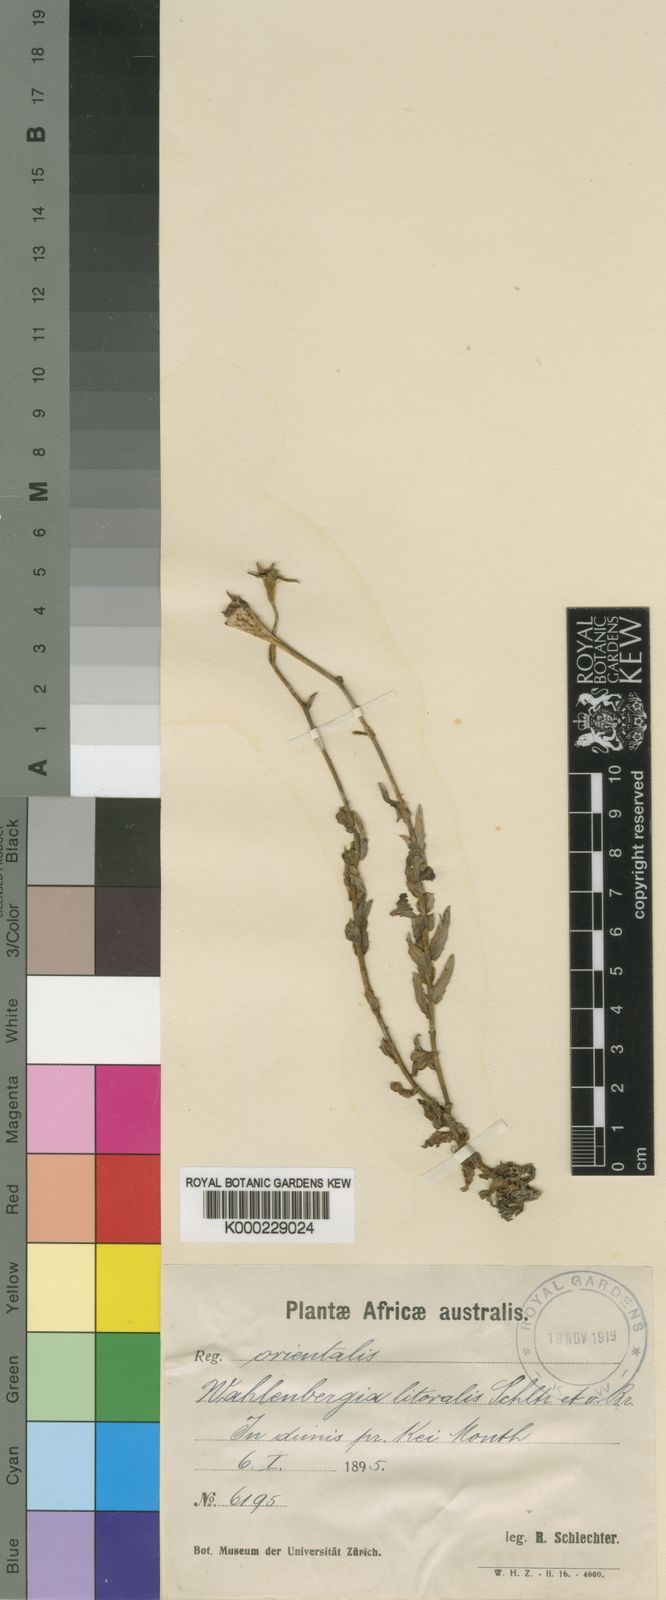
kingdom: Plantae
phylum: Tracheophyta
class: Magnoliopsida
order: Asterales
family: Campanulaceae
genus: Wahlenbergia
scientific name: Wahlenbergia orae
